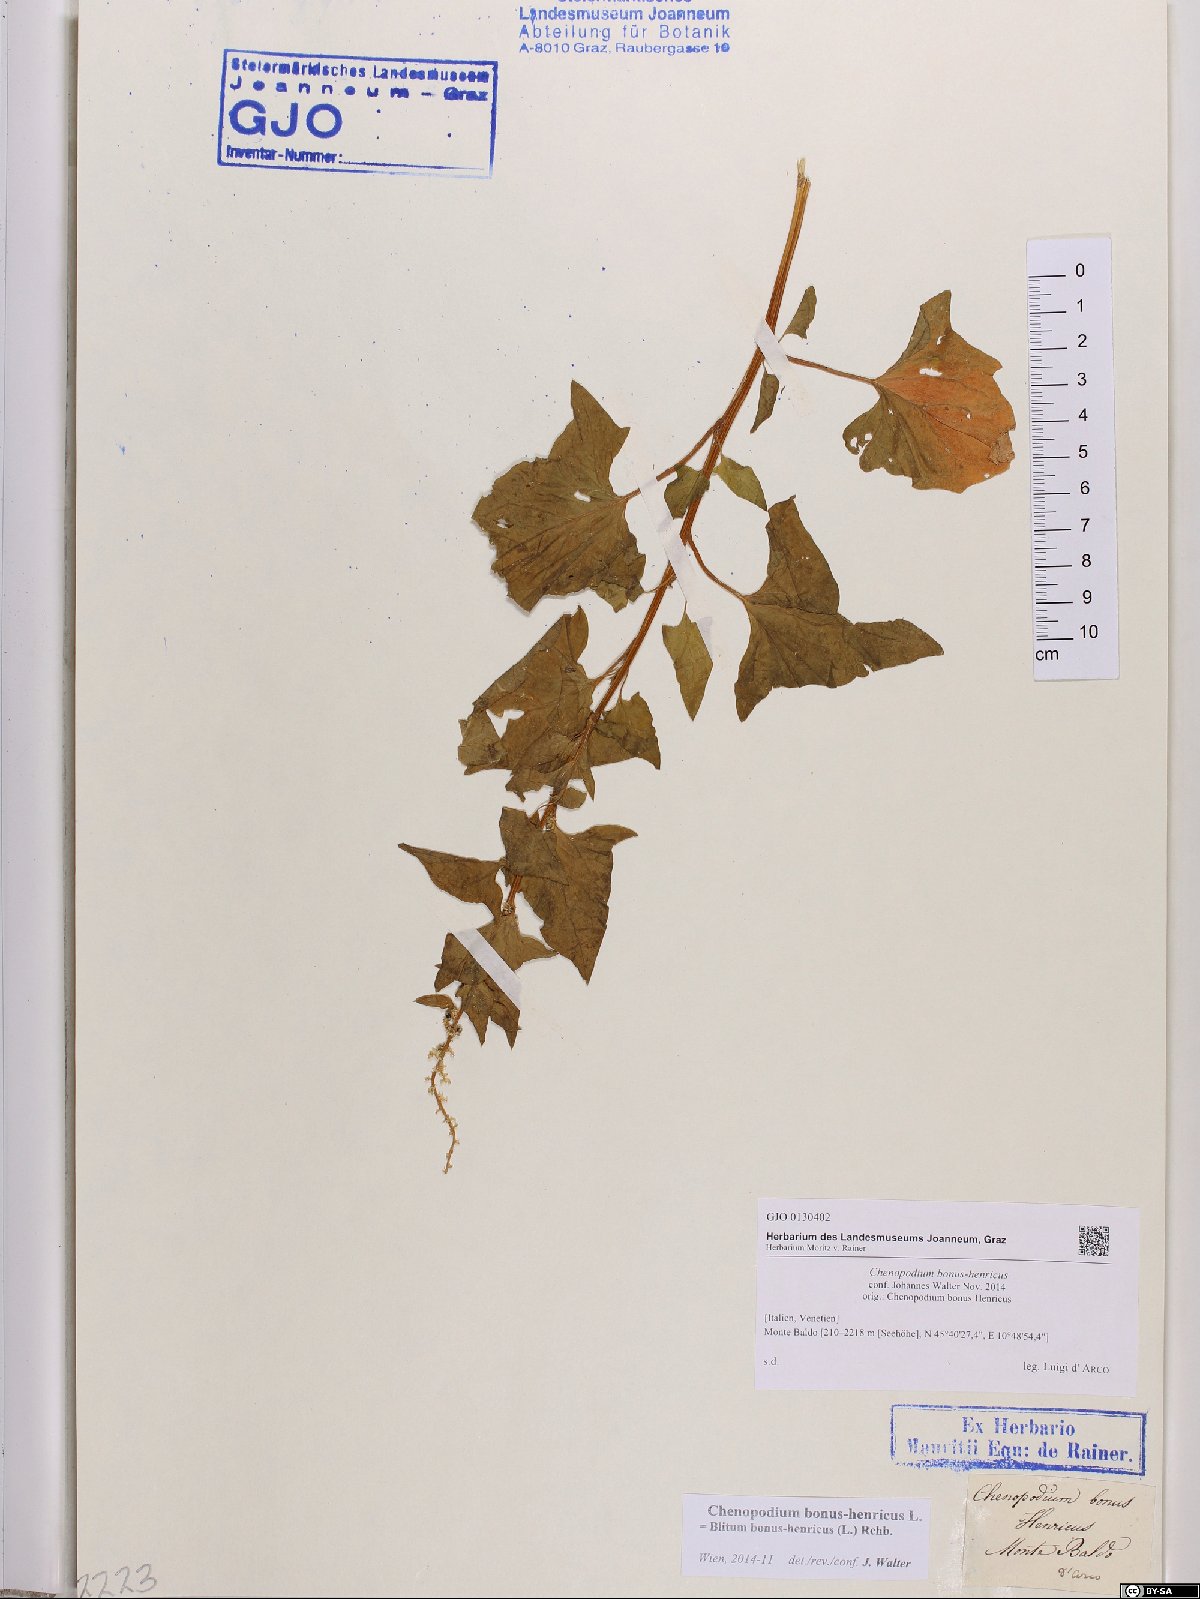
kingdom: Plantae
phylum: Tracheophyta
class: Magnoliopsida
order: Caryophyllales
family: Amaranthaceae
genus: Blitum
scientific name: Blitum bonus-henricus
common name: Good king henry
